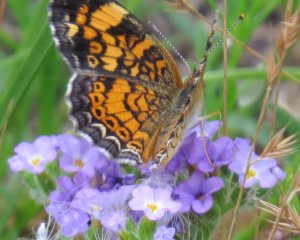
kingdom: Animalia
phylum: Arthropoda
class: Insecta
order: Lepidoptera
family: Nymphalidae
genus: Phyciodes
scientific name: Phyciodes tharos
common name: Pearl Crescent
